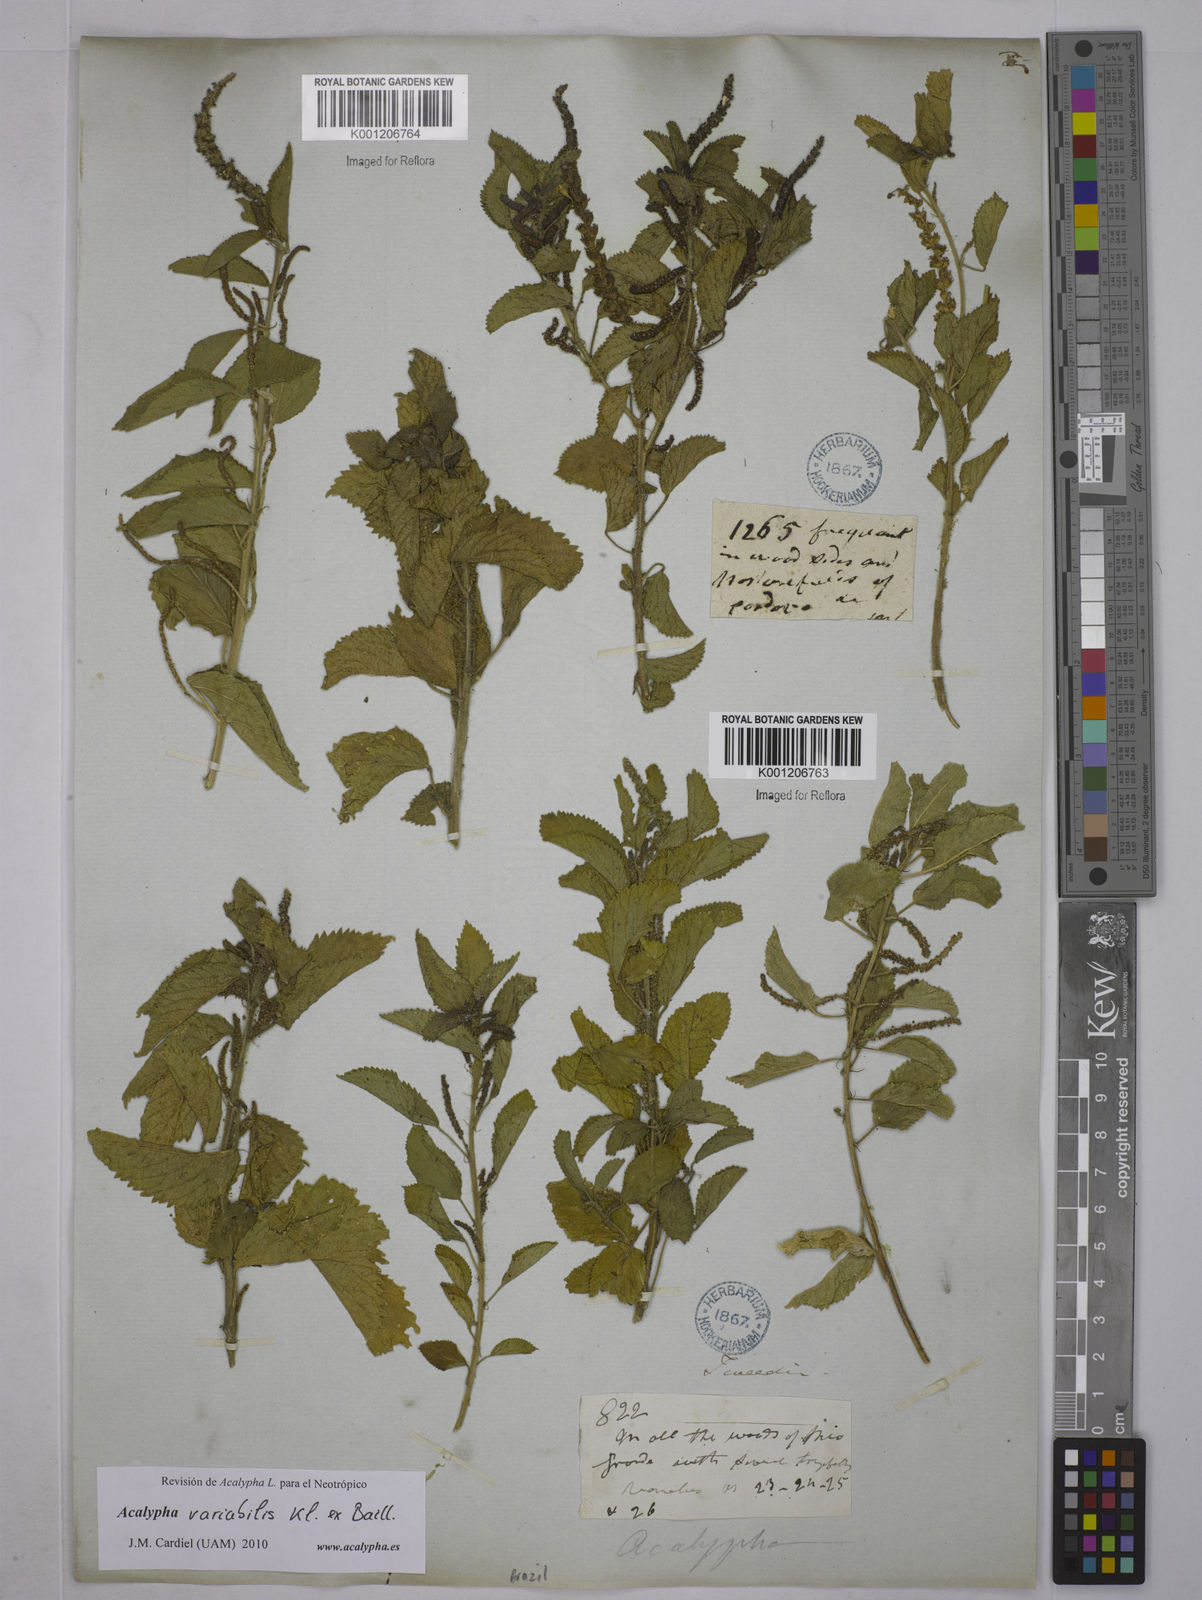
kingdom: Plantae
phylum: Tracheophyta
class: Magnoliopsida
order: Malpighiales
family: Euphorbiaceae
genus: Acalypha
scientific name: Acalypha variabilis
